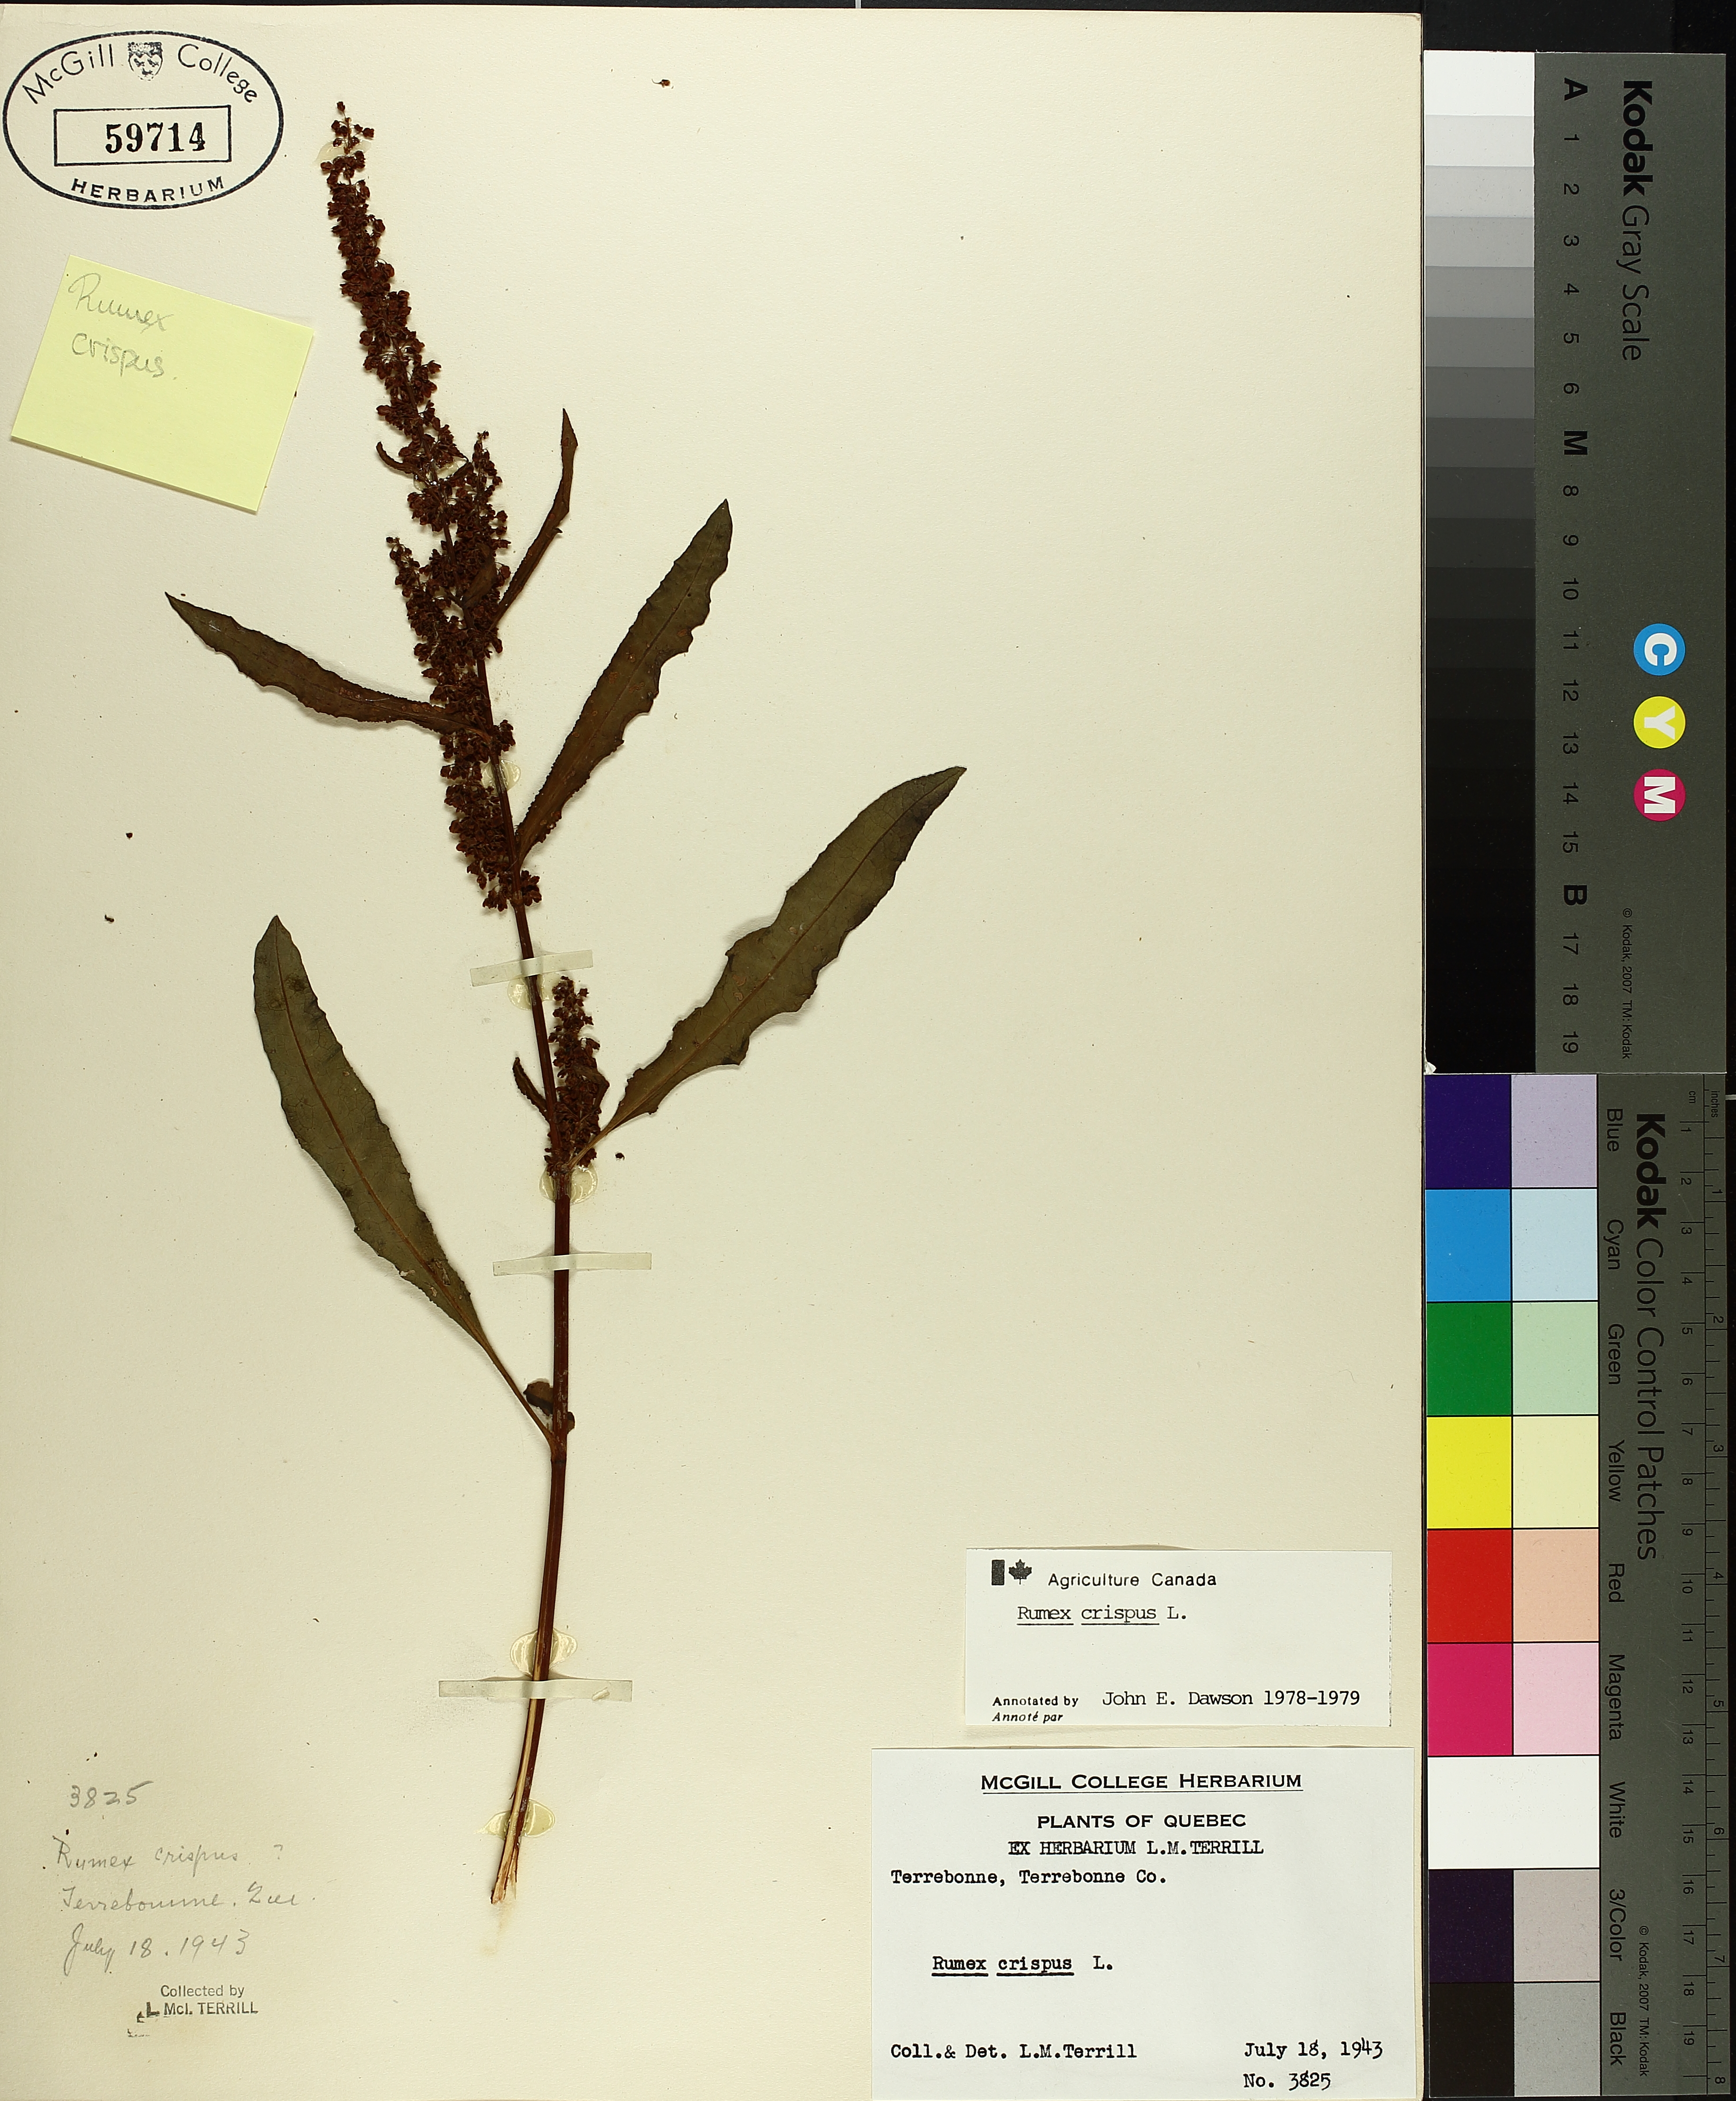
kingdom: Plantae
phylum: Tracheophyta
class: Magnoliopsida
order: Caryophyllales
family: Polygonaceae
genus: Rumex
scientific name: Rumex crispus
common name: Curled dock
